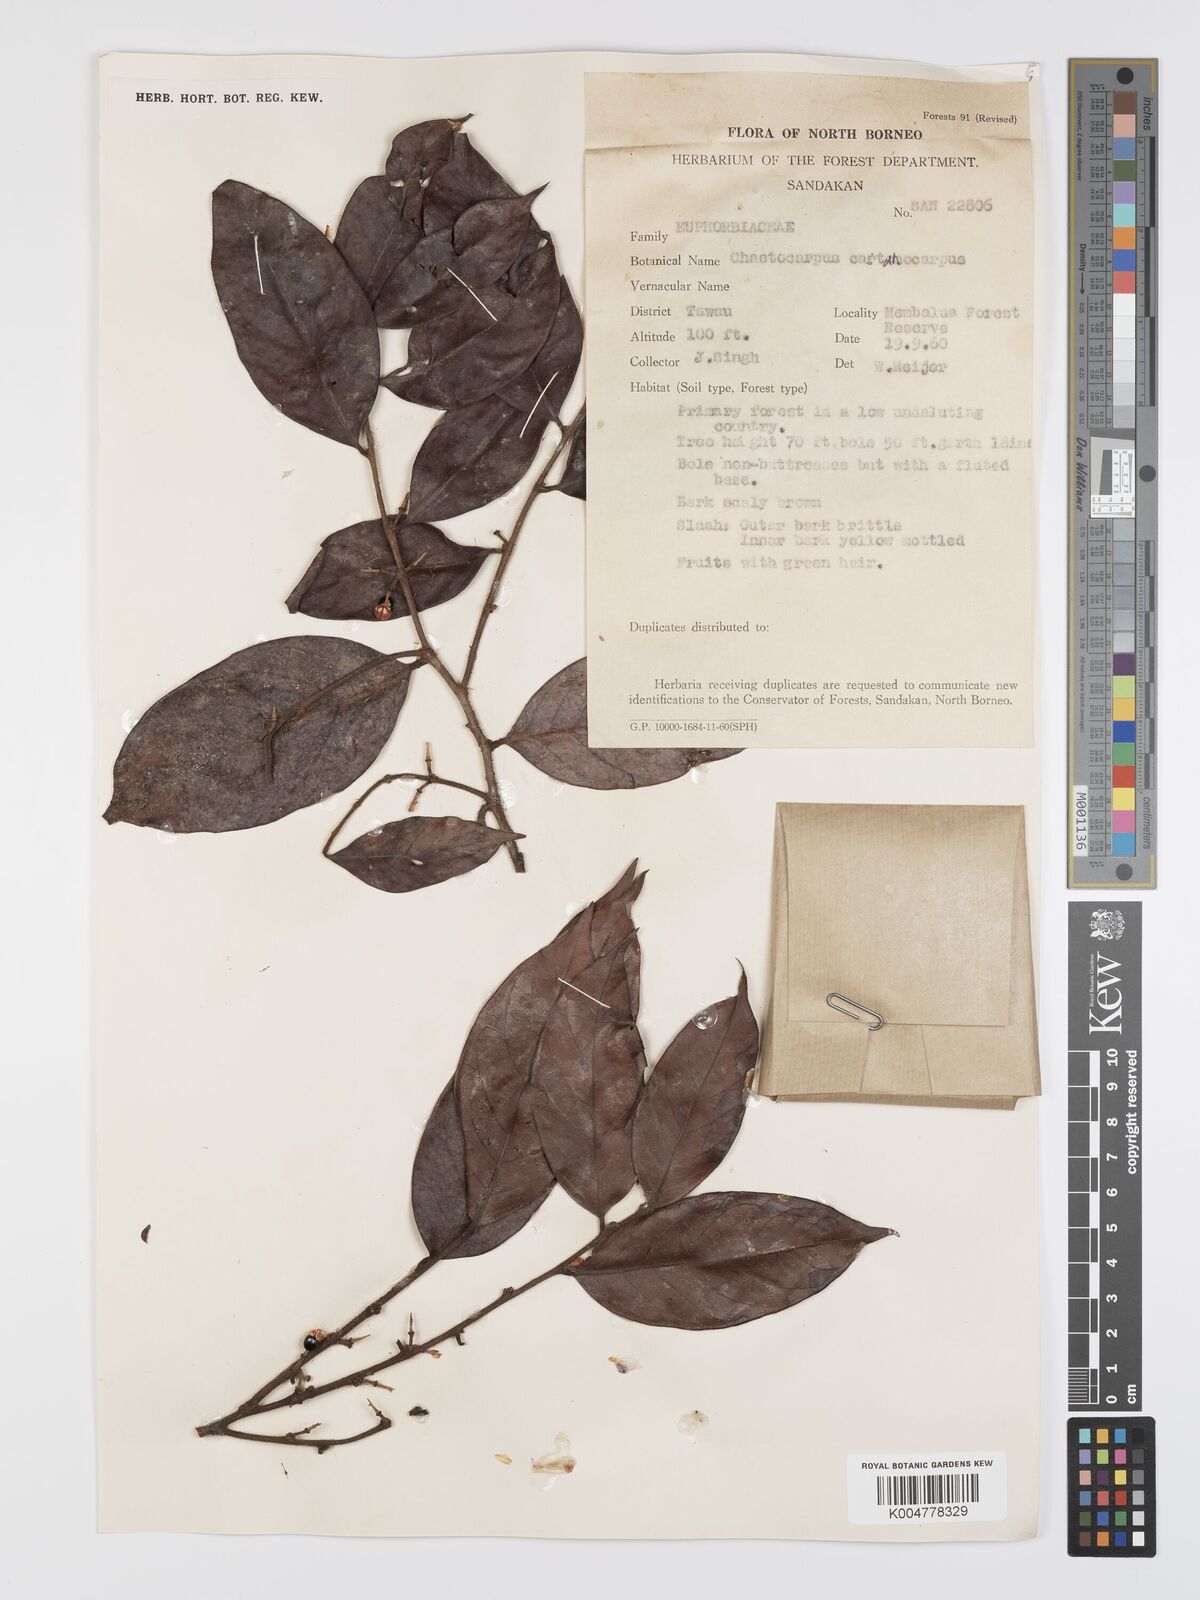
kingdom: Plantae
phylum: Tracheophyta
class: Magnoliopsida
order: Malpighiales
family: Peraceae
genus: Chaetocarpus
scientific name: Chaetocarpus castanocarpus
